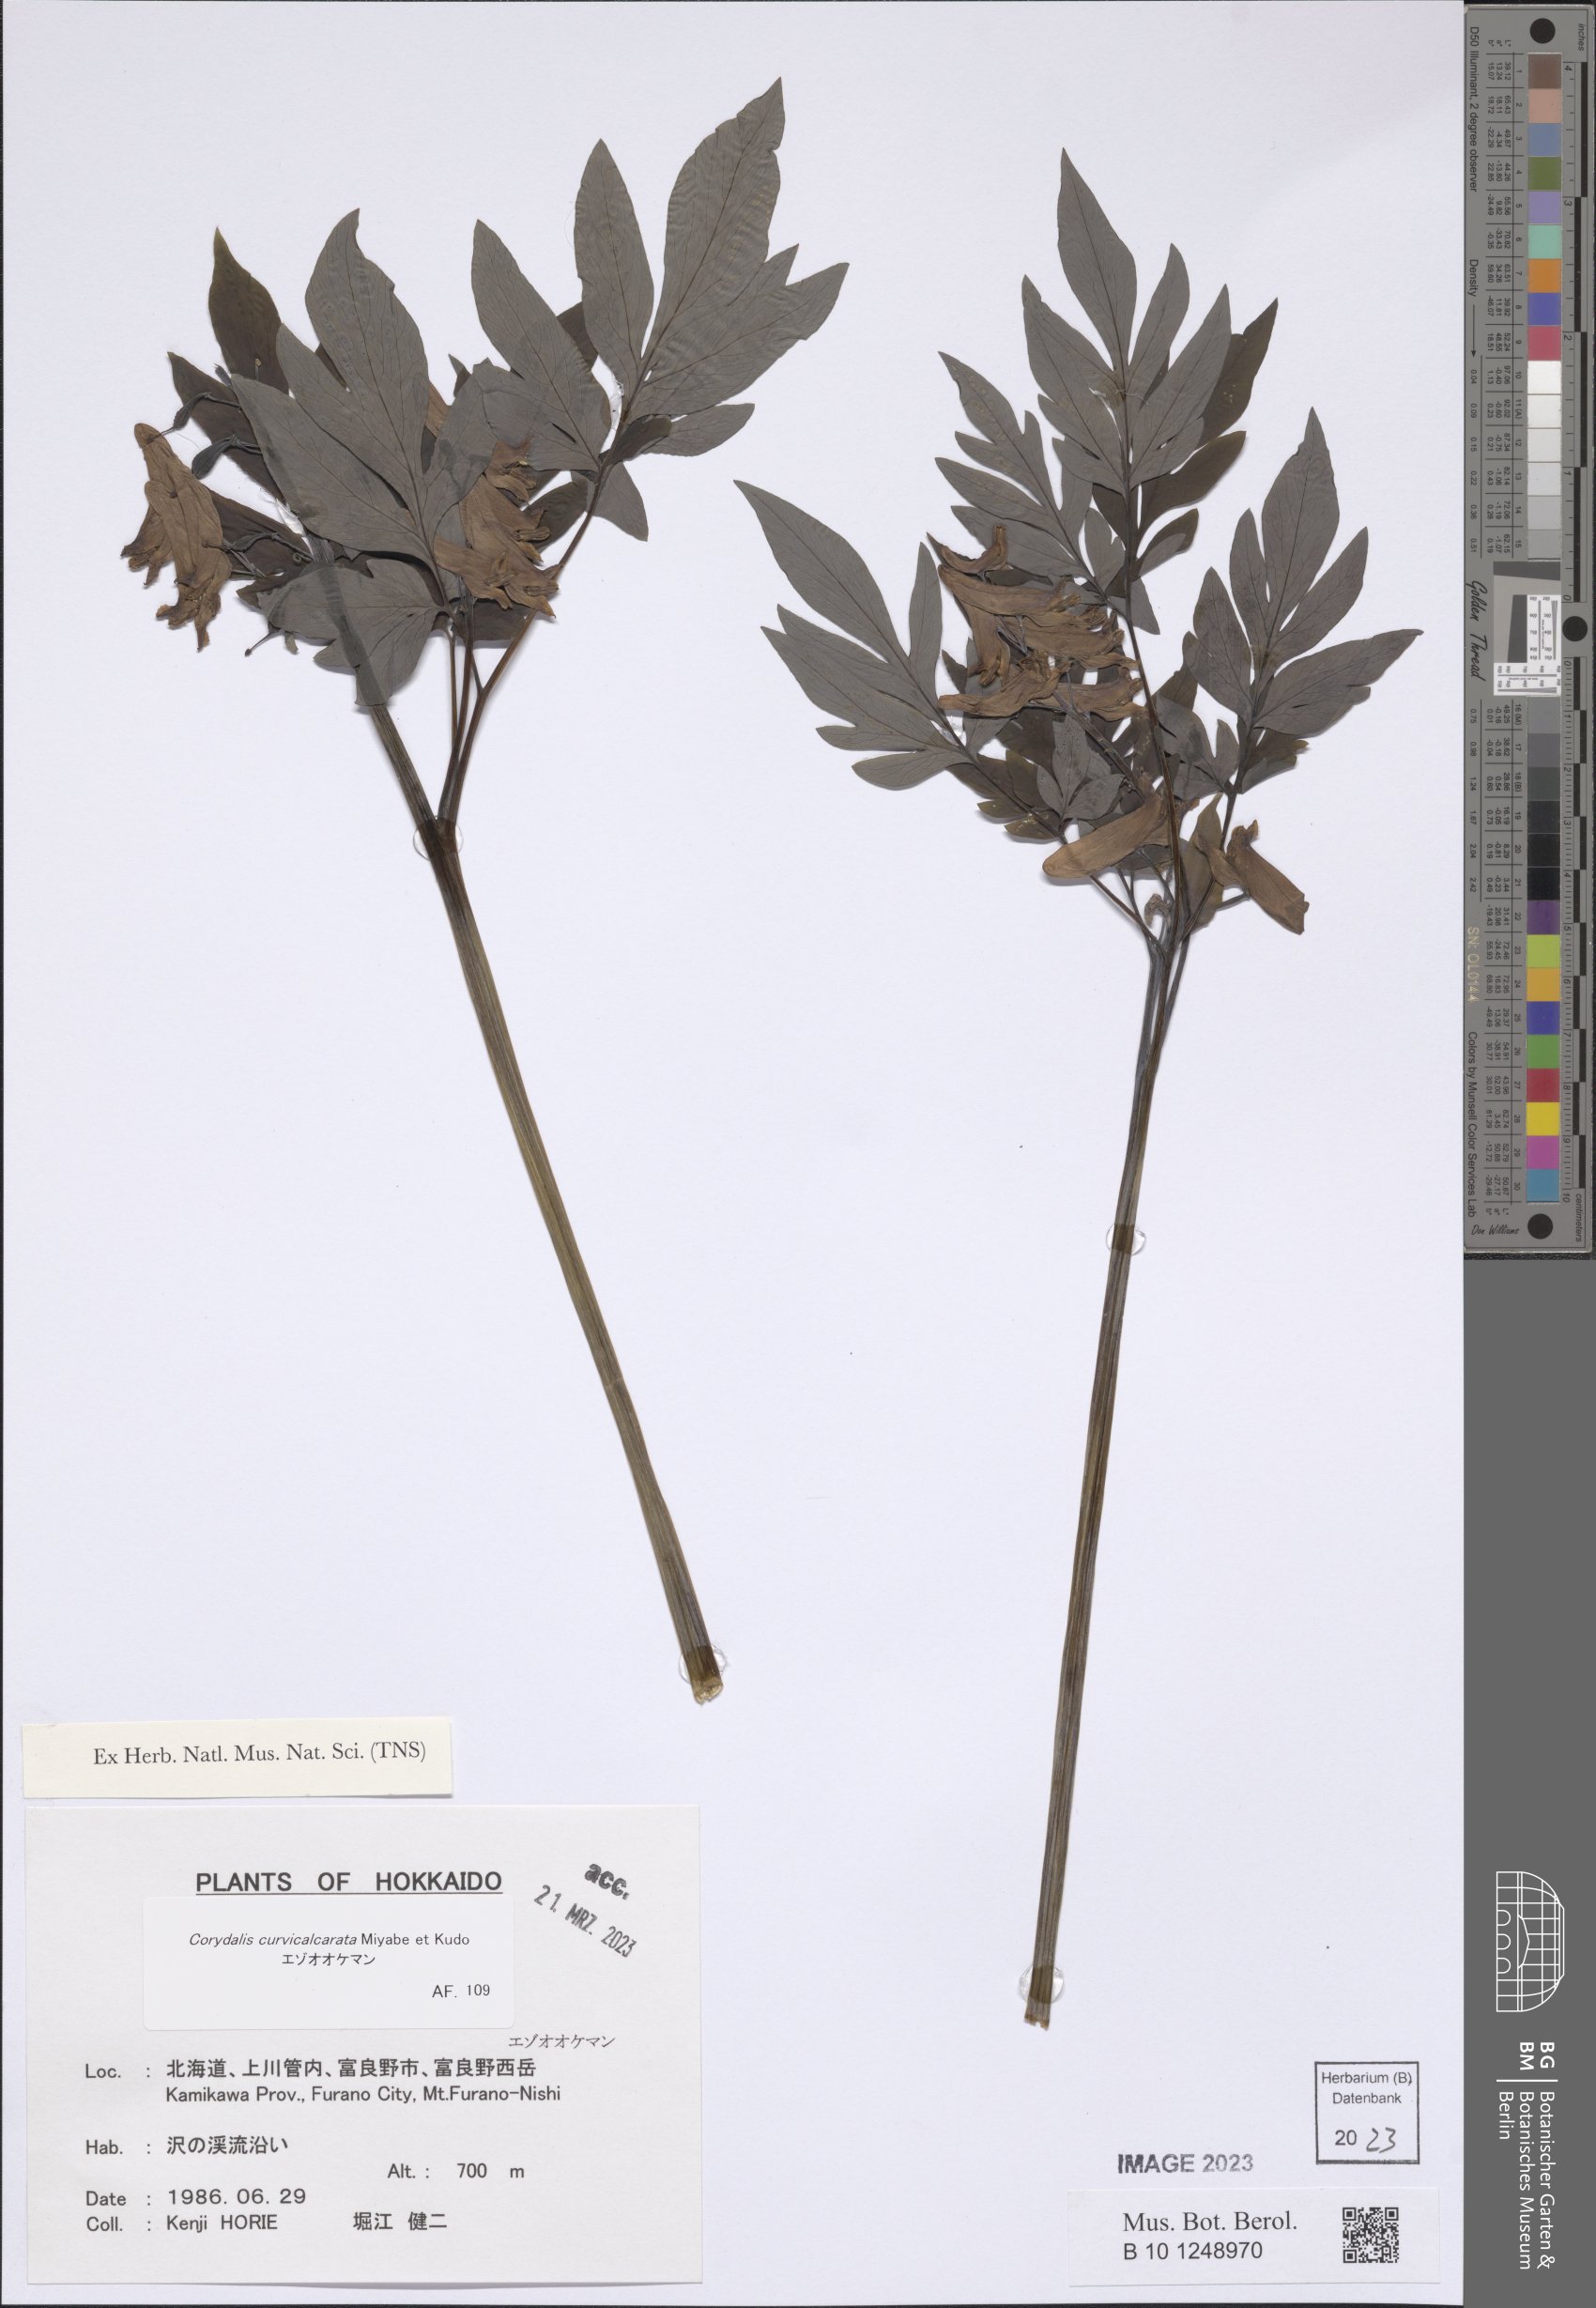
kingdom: Plantae
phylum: Tracheophyta
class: Magnoliopsida
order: Ranunculales
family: Papaveraceae
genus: Corydalis
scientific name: Corydalis gigantea
